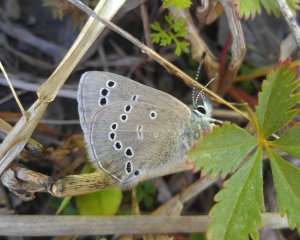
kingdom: Animalia
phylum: Arthropoda
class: Insecta
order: Lepidoptera
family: Lycaenidae
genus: Glaucopsyche
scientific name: Glaucopsyche lygdamus
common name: Silvery Blue
